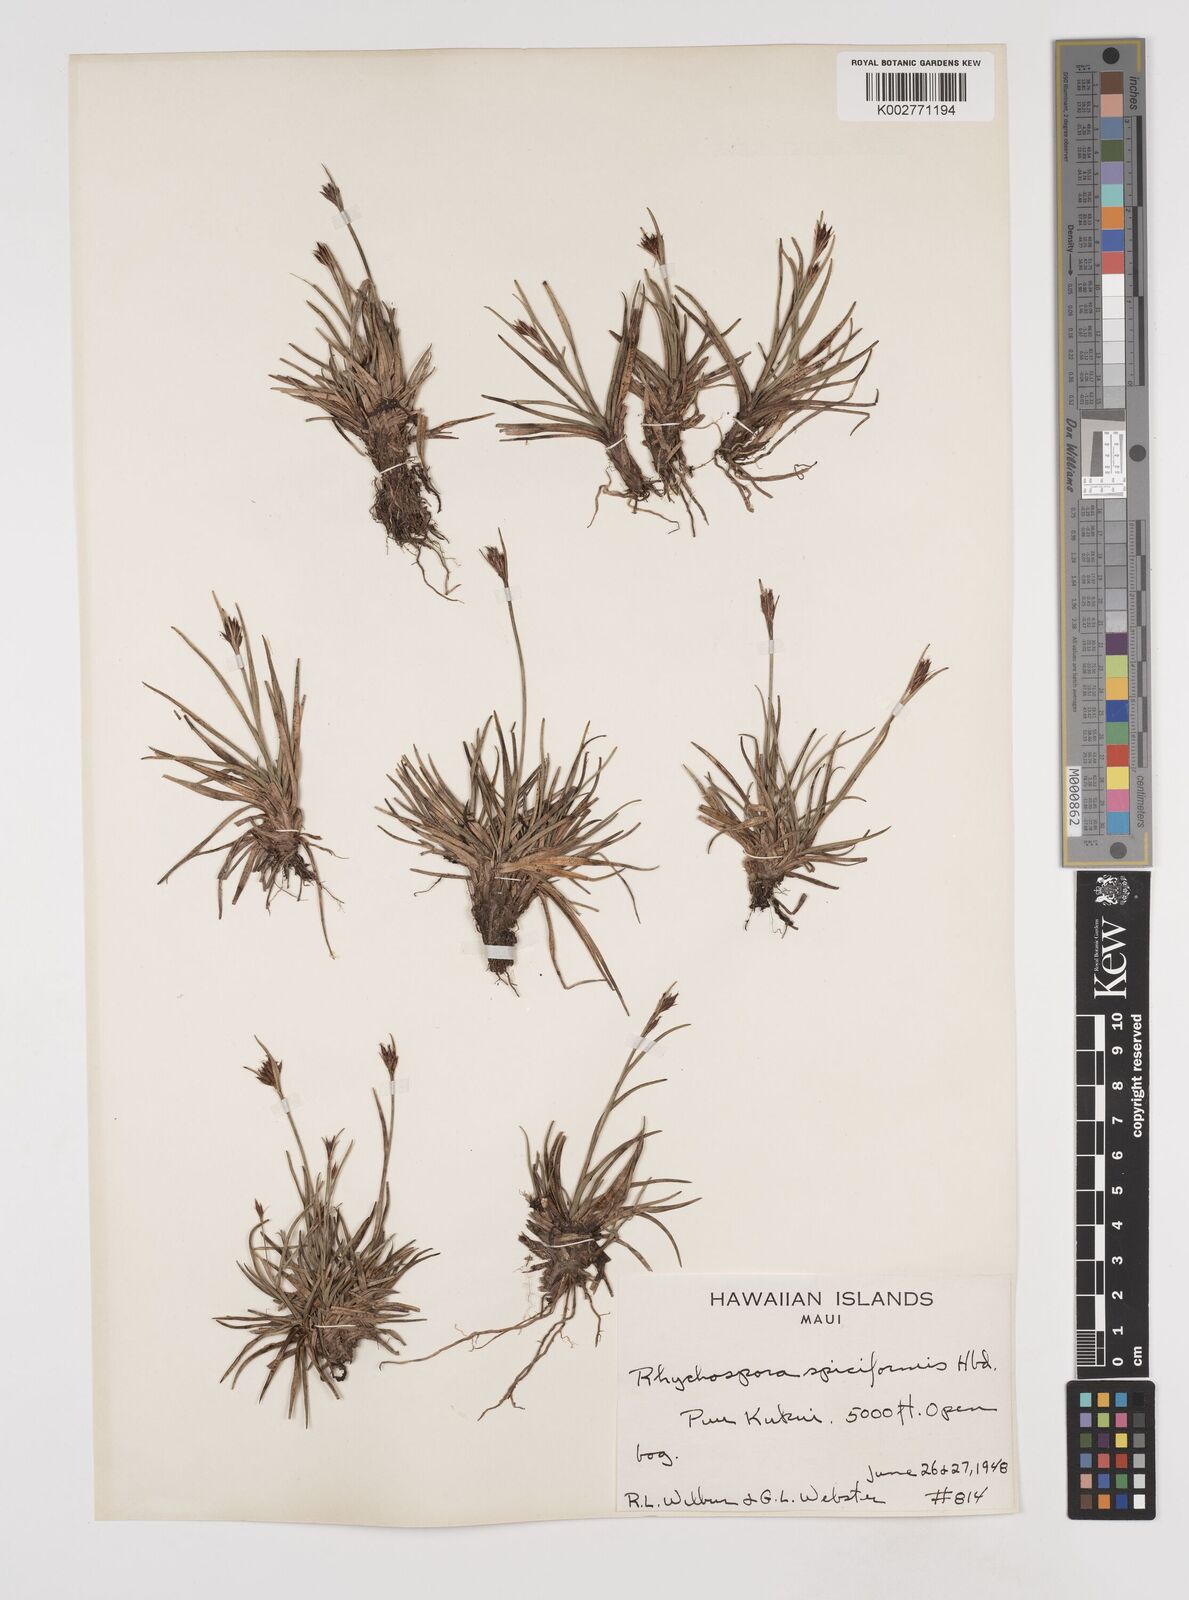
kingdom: Plantae
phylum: Tracheophyta
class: Liliopsida
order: Poales
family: Cyperaceae
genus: Rhynchospora
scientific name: Rhynchospora chinensis
